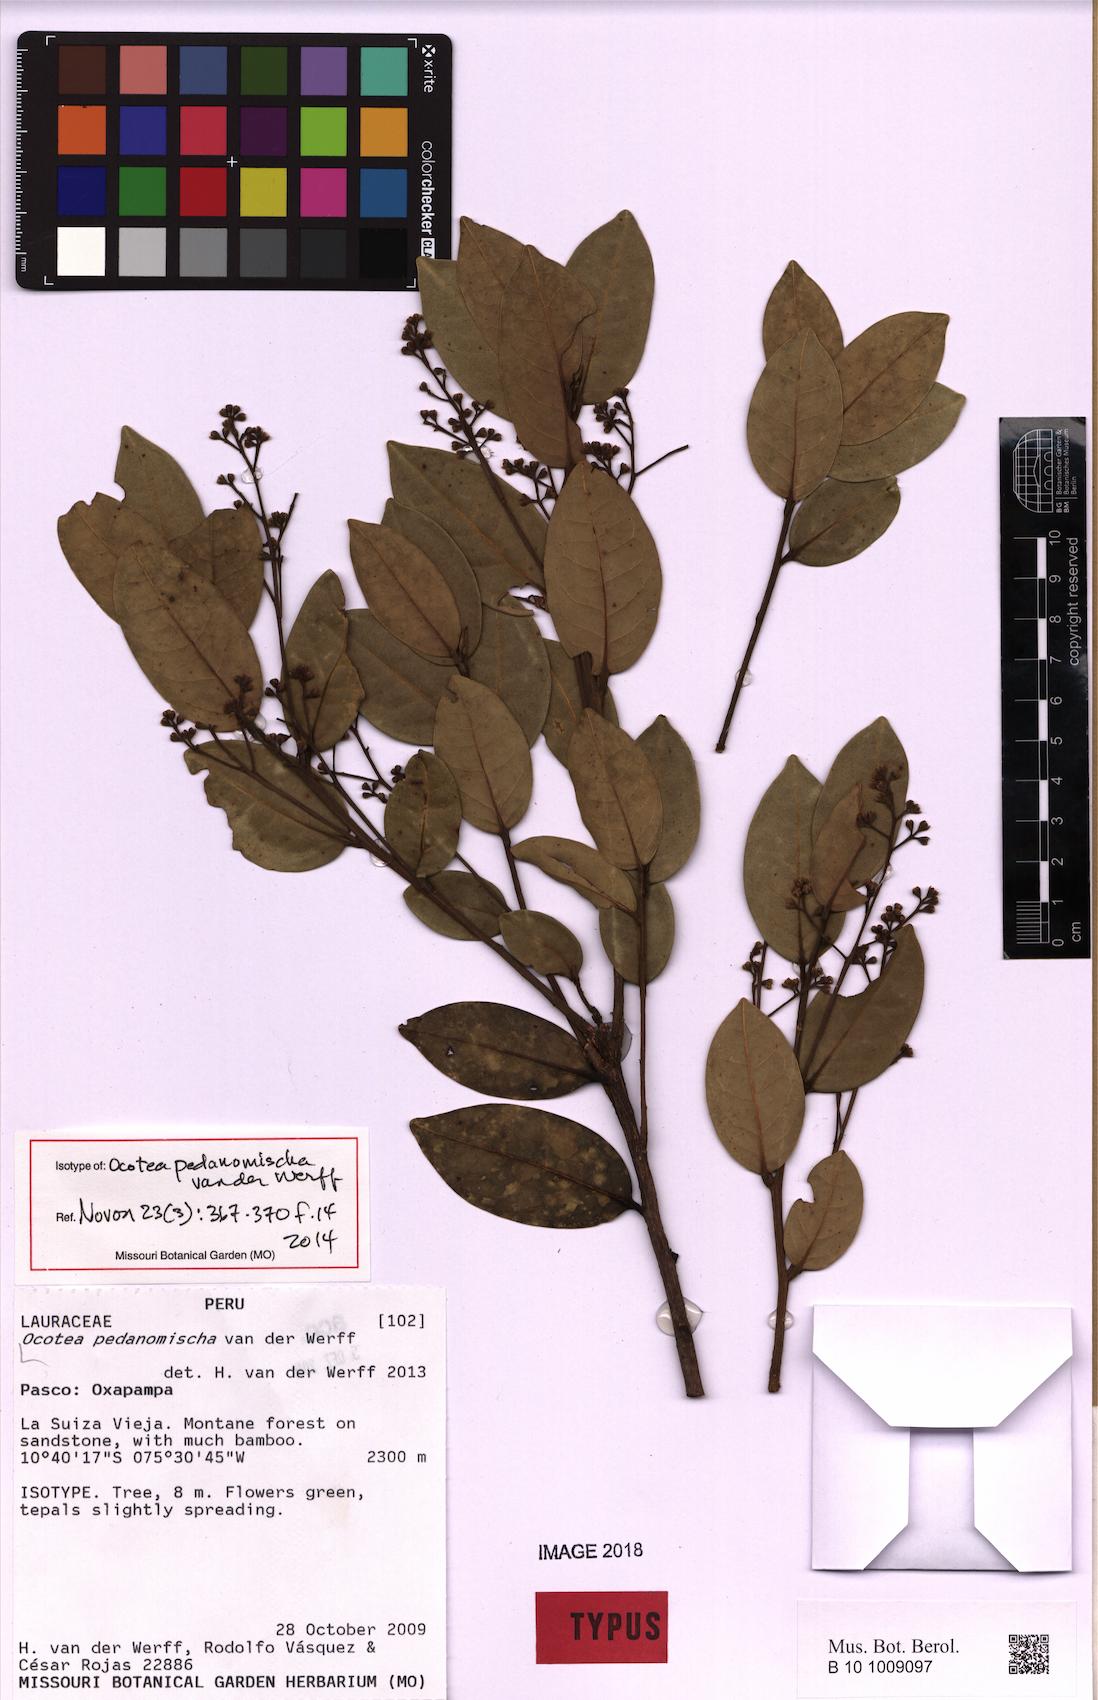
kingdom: Plantae
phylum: Tracheophyta
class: Magnoliopsida
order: Laurales
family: Lauraceae
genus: Ocotea
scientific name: Ocotea pedanomischa
